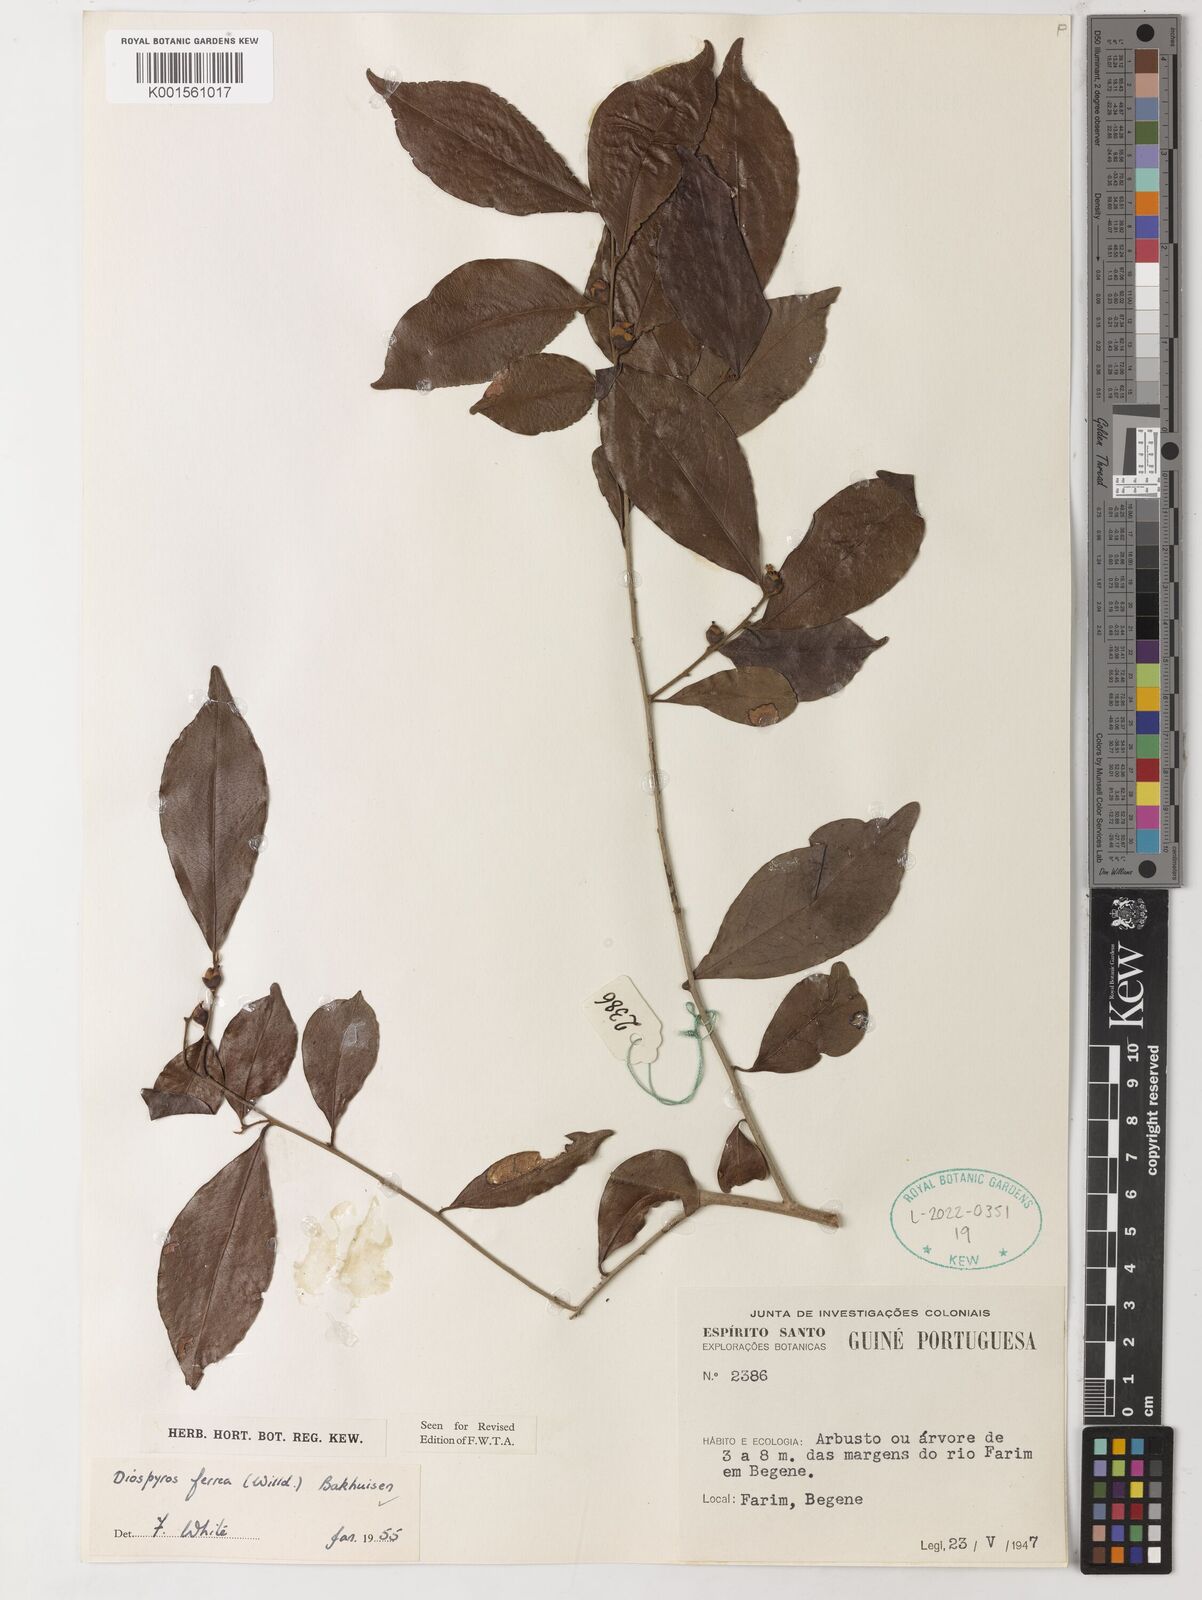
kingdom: Plantae
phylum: Tracheophyta
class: Magnoliopsida
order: Ericales
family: Ebenaceae
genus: Diospyros
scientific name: Diospyros ferrea
